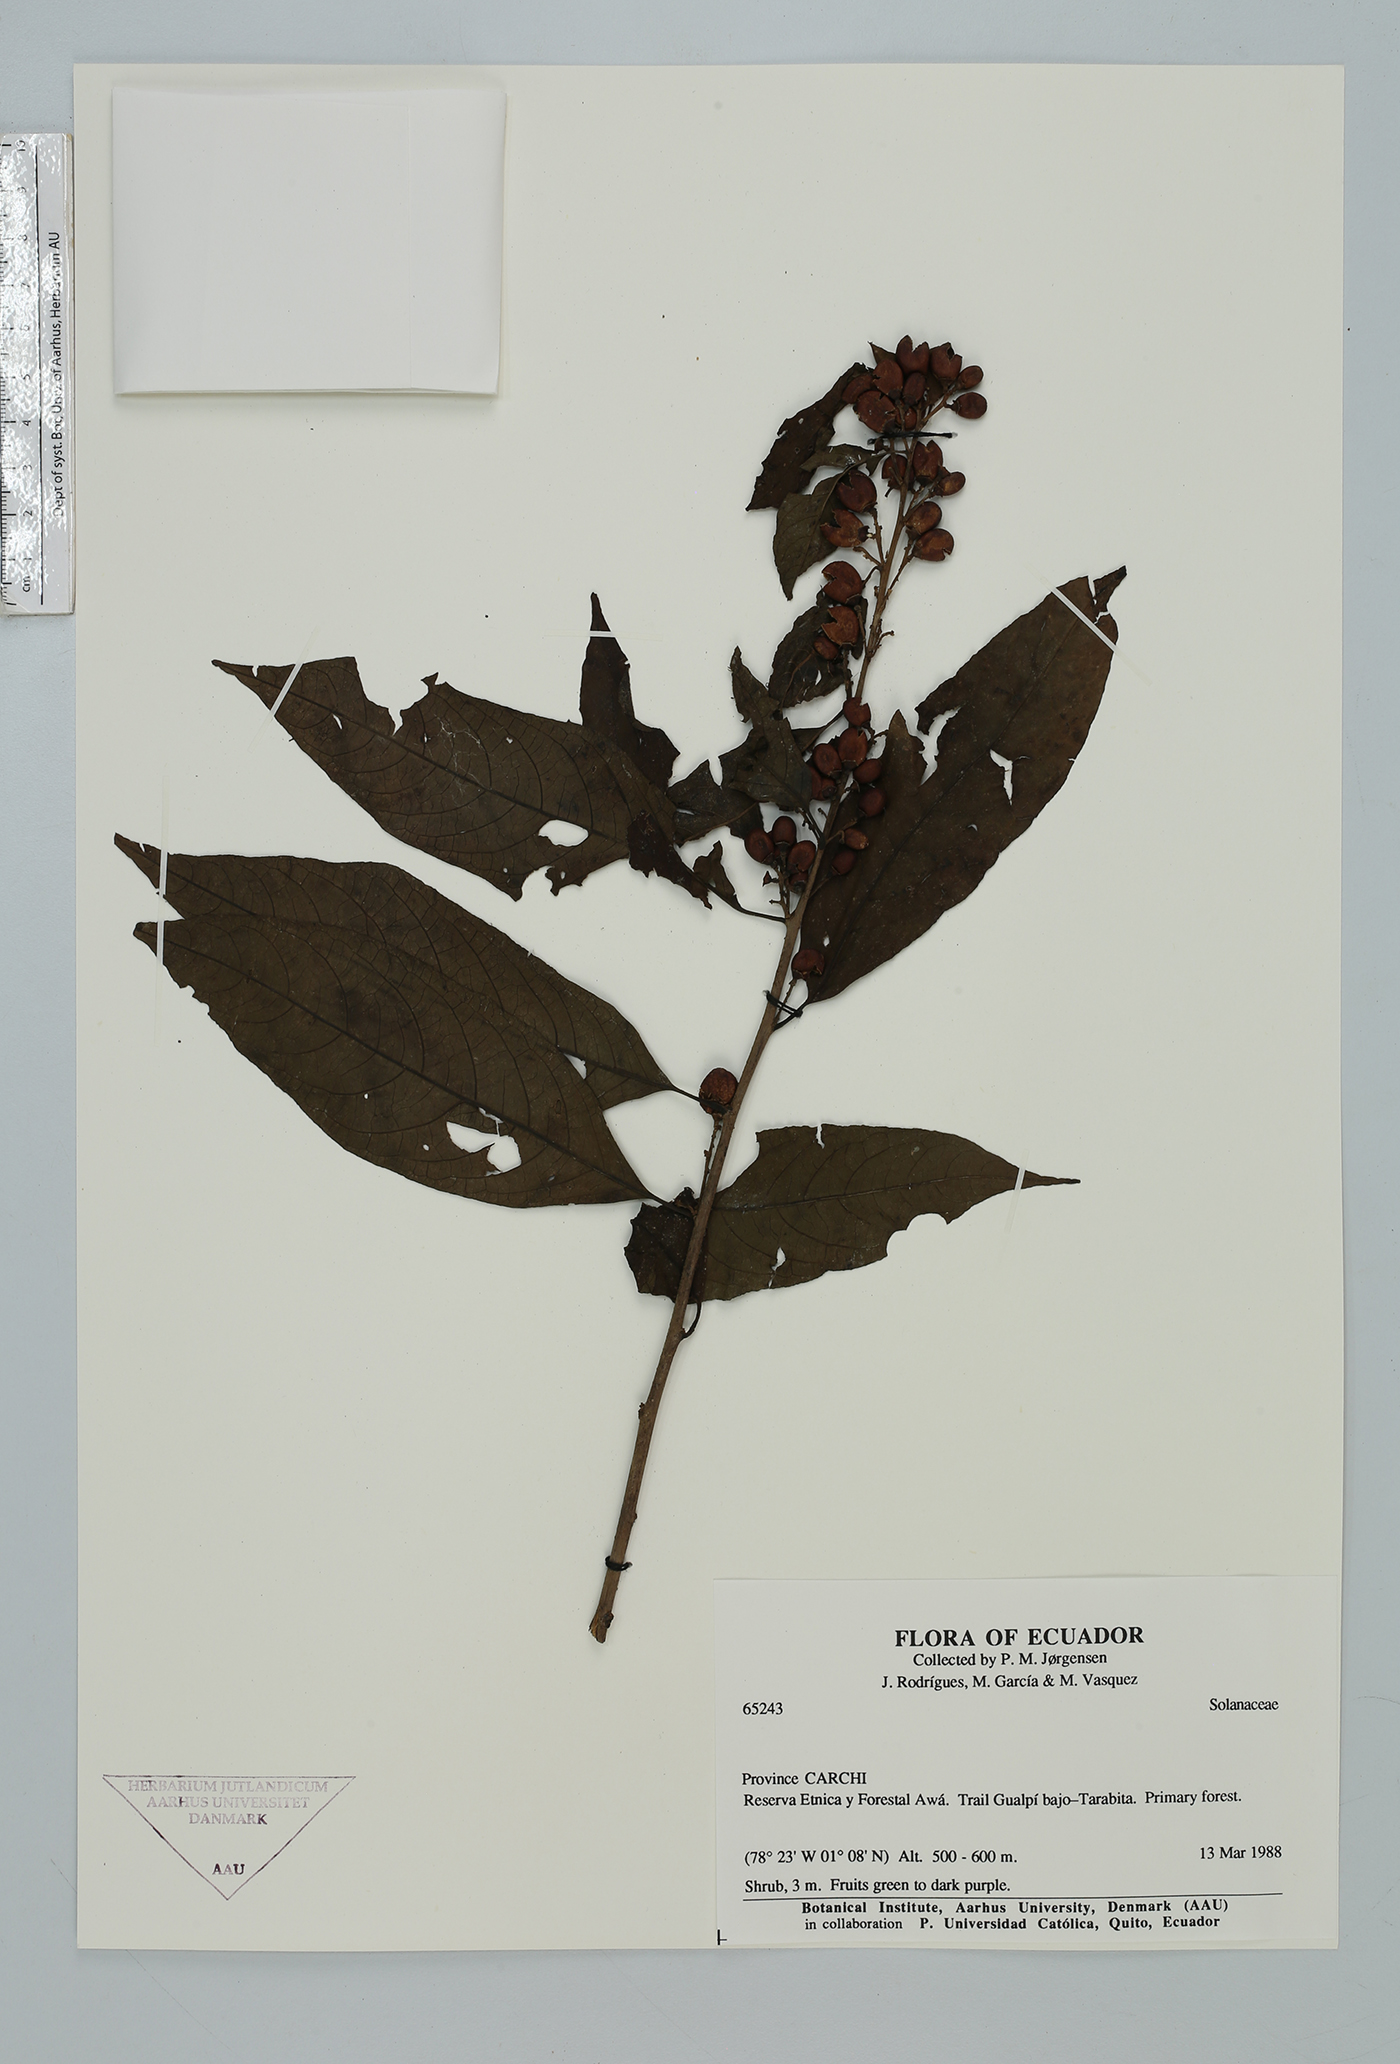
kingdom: Plantae
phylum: Tracheophyta
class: Magnoliopsida
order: Solanales
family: Solanaceae
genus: Cestrum
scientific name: Cestrum
